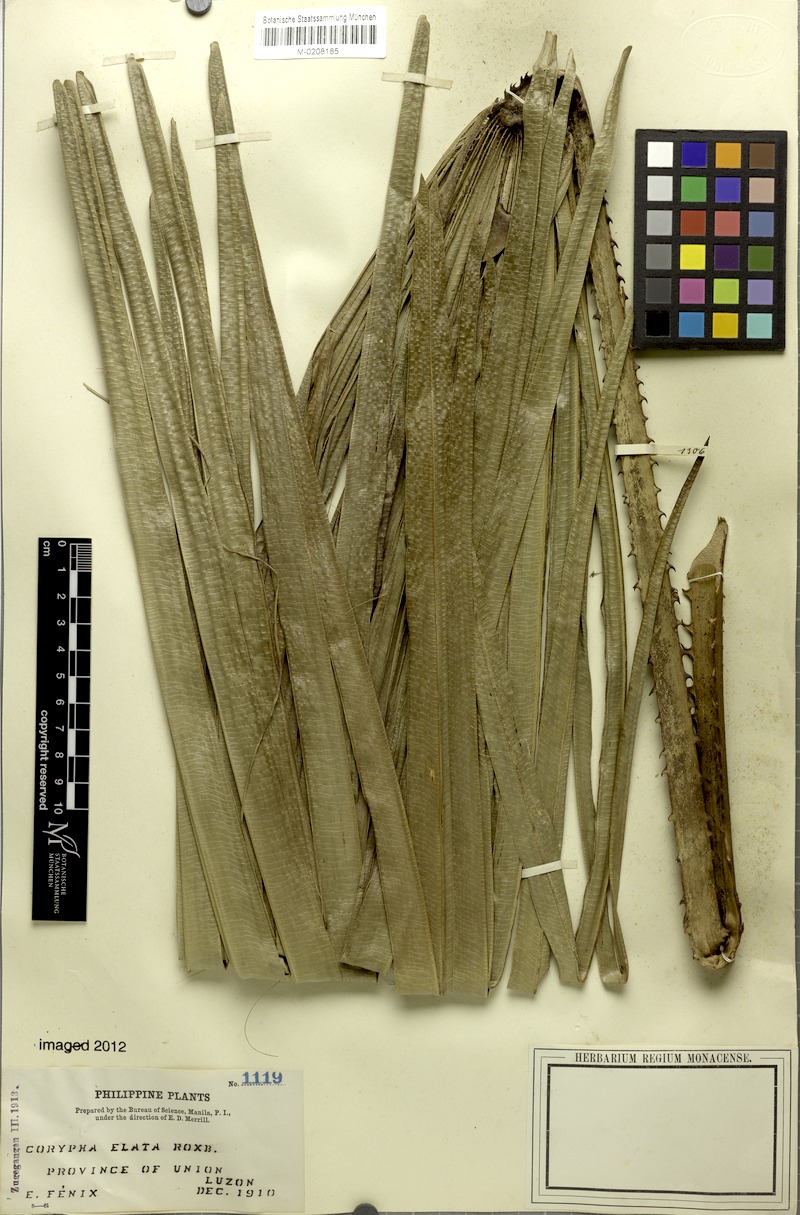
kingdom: Plantae
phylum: Tracheophyta
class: Liliopsida
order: Arecales
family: Arecaceae
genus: Corypha
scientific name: Corypha utan
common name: Buri palm
